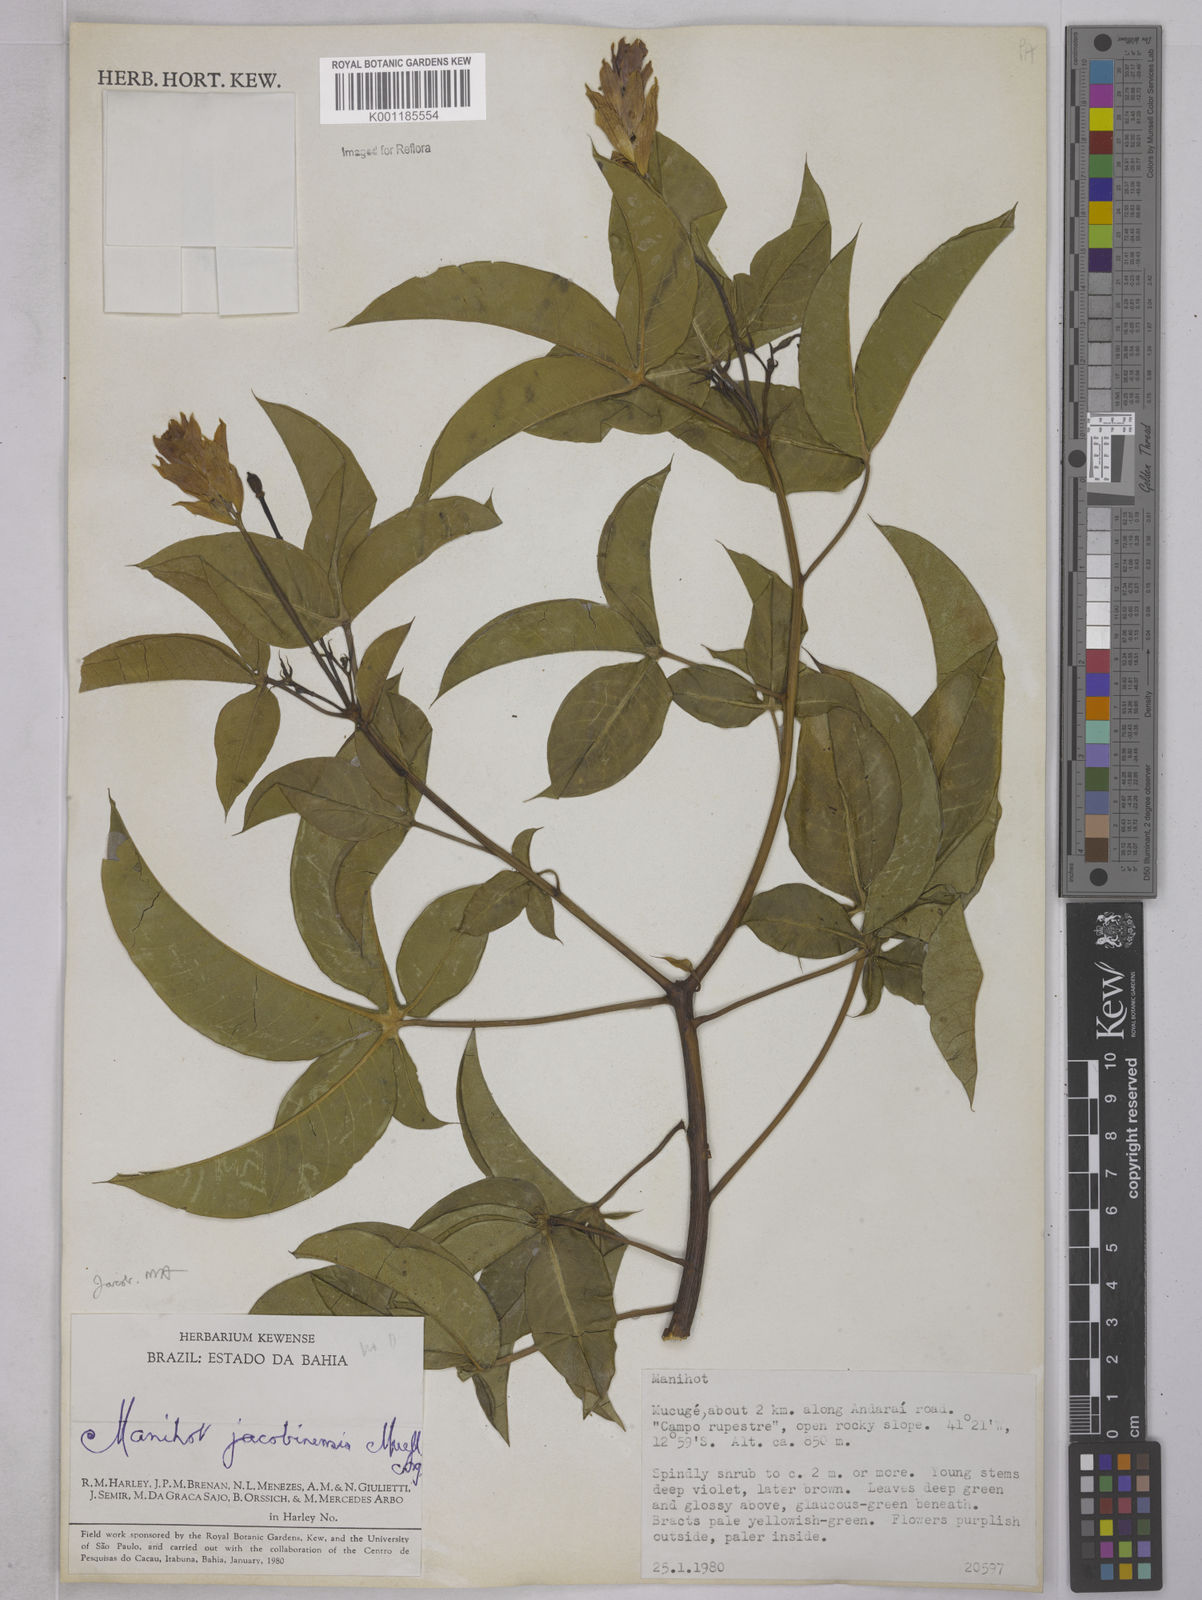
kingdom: Plantae
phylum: Tracheophyta
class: Magnoliopsida
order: Malpighiales
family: Euphorbiaceae
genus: Manihot
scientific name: Manihot
